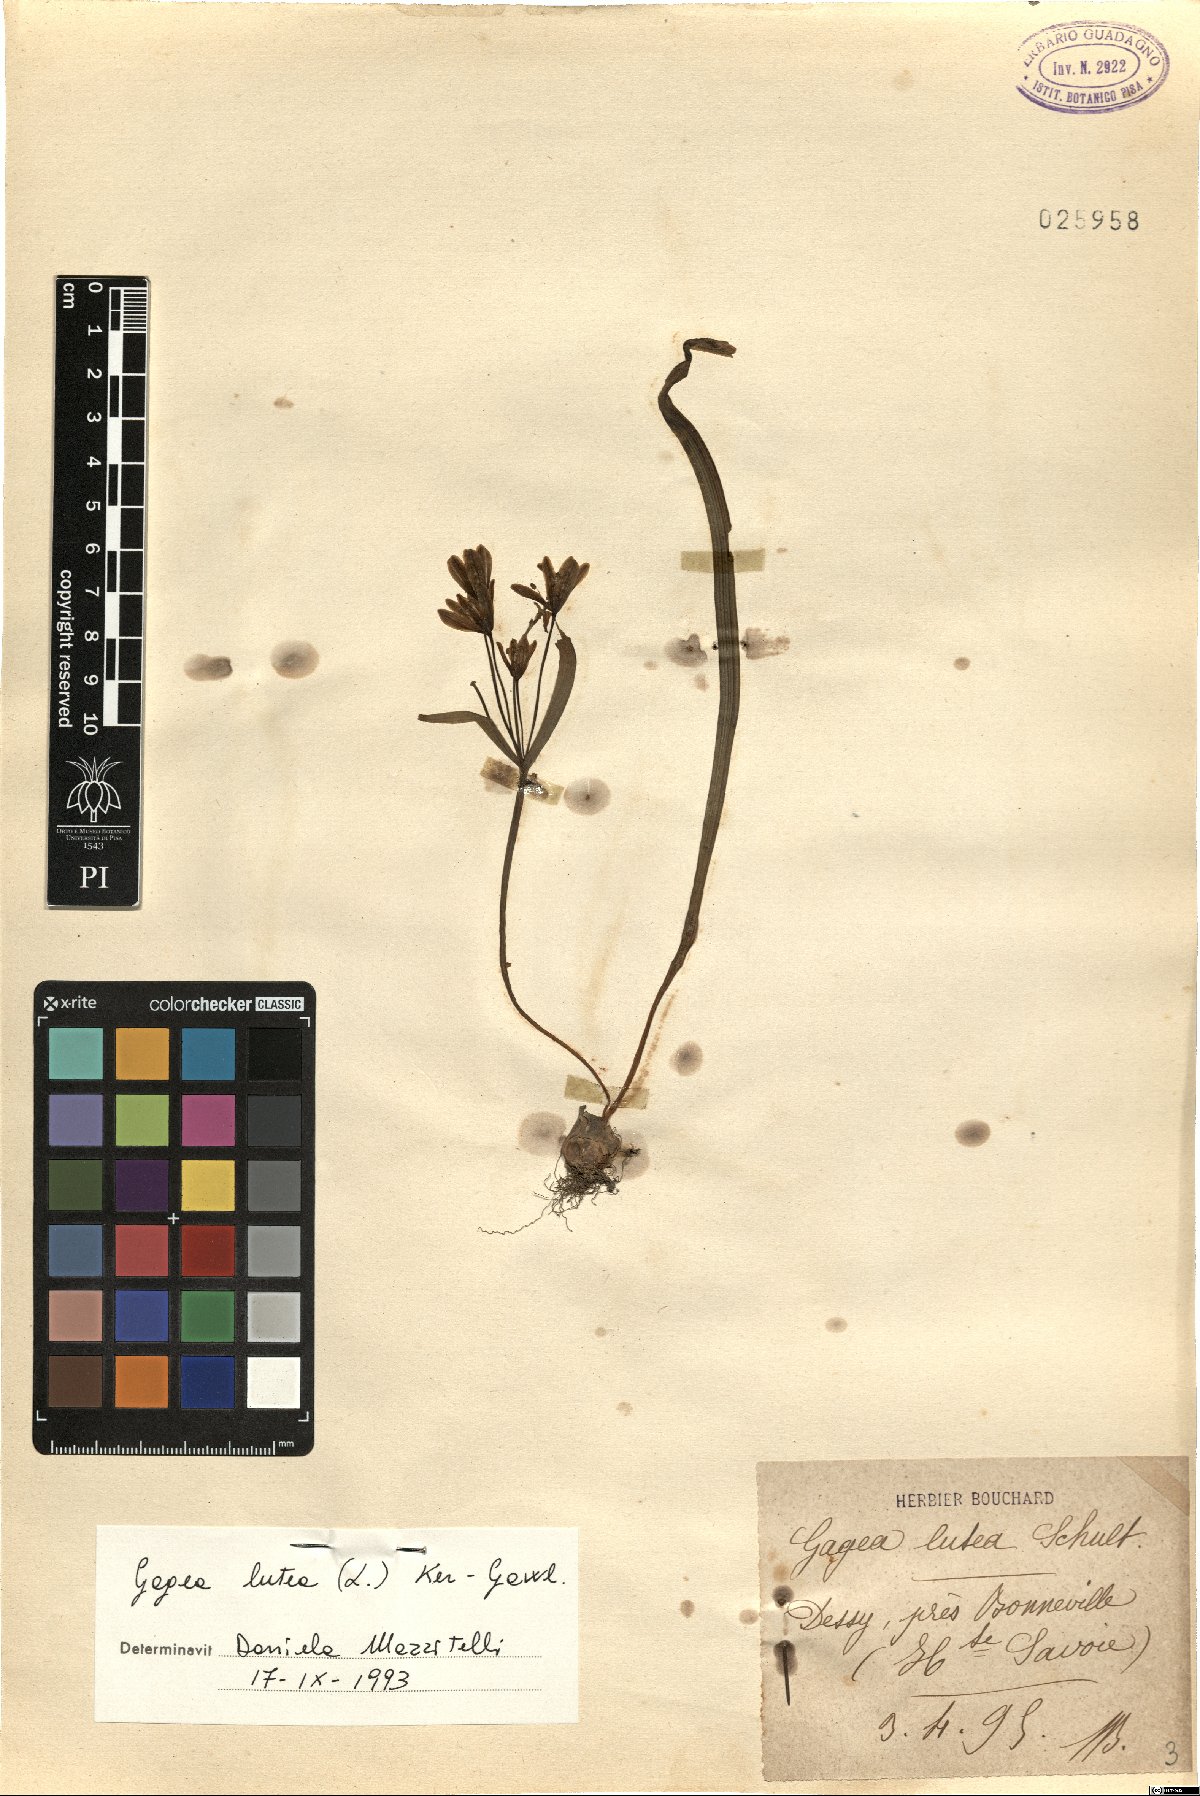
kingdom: Plantae
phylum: Tracheophyta
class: Liliopsida
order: Liliales
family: Liliaceae
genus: Gagea
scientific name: Gagea lutea
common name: Yellow star-of-bethlehem
